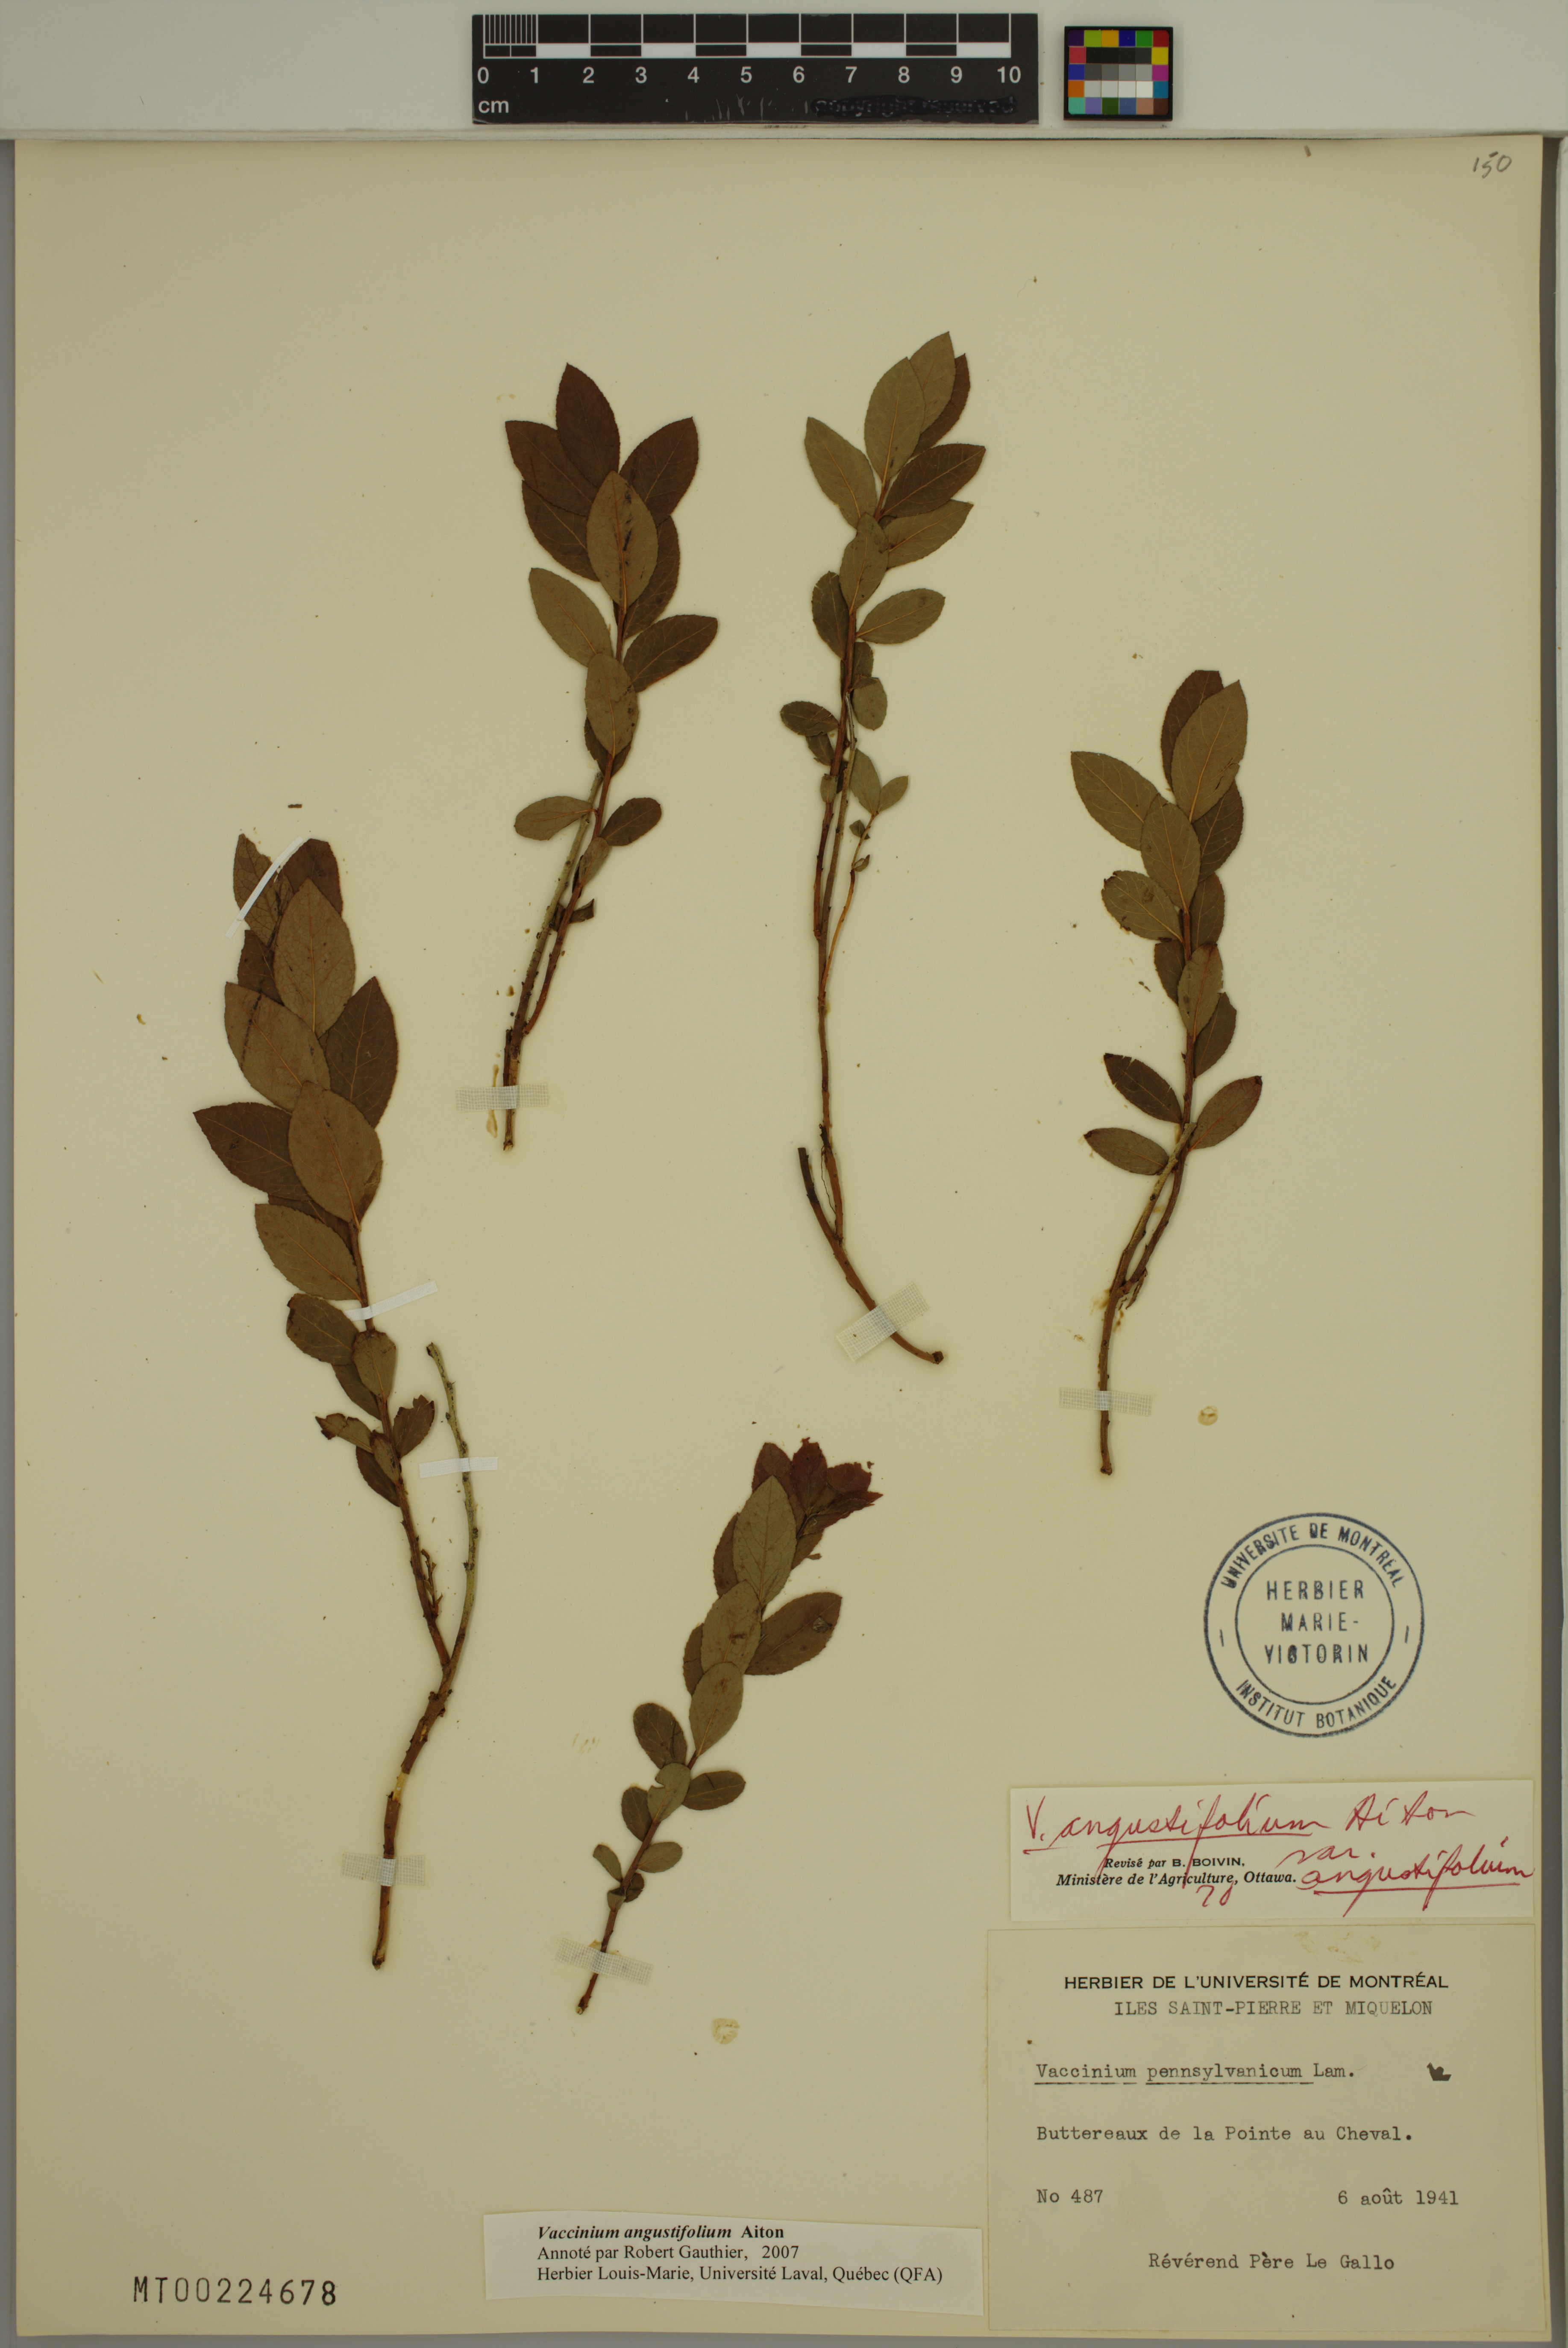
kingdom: Plantae
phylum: Tracheophyta
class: Magnoliopsida
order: Ericales
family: Ericaceae
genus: Vaccinium
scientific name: Vaccinium angustifolium
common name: Early lowbush blueberry
